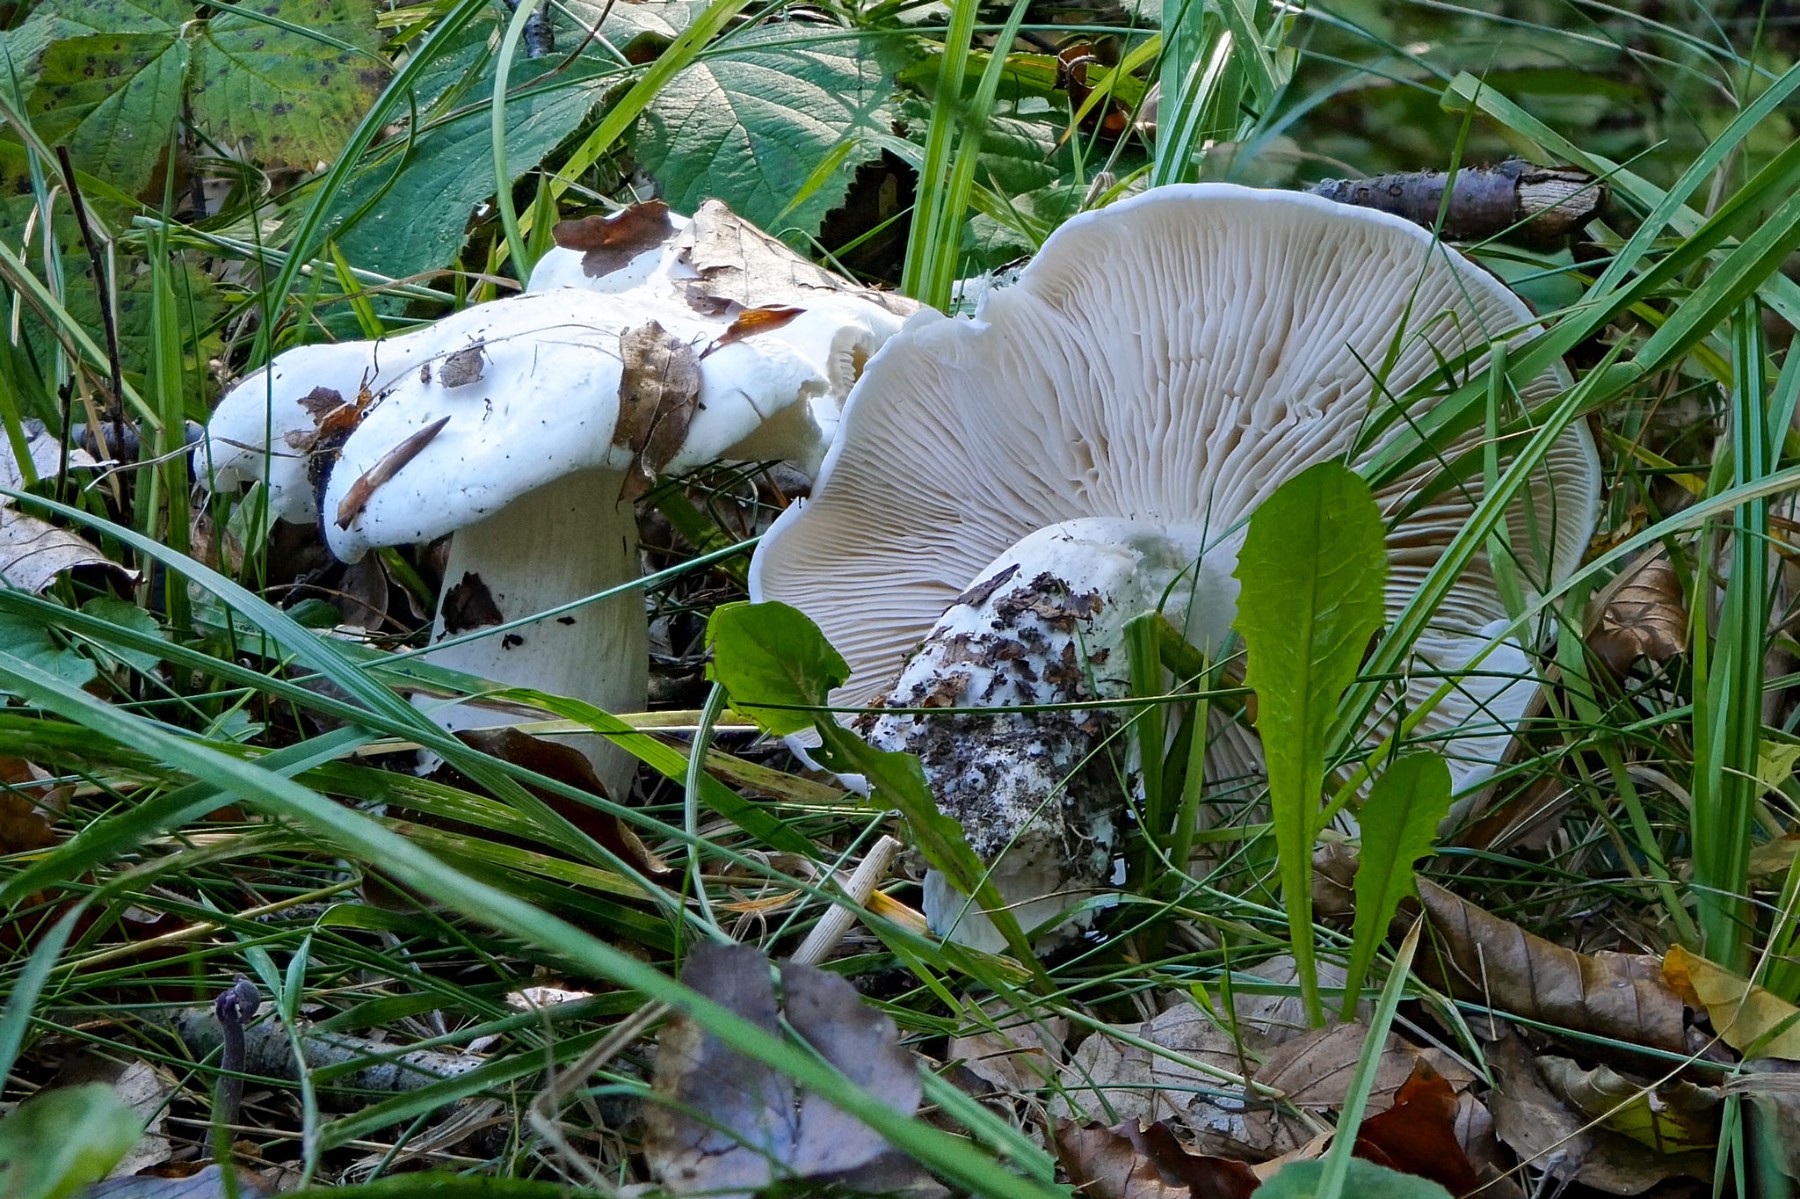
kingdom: Fungi
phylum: Basidiomycota
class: Agaricomycetes
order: Agaricales
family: Tricholomataceae
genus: Tricholoma
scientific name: Tricholoma columbetta
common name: silke-ridderhat
